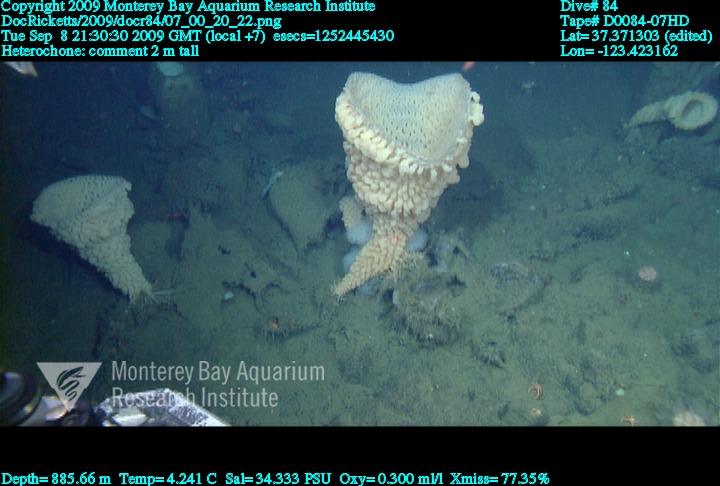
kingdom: Animalia
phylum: Porifera
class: Hexactinellida
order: Sceptrulophora
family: Aphrocallistidae
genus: Heterochone
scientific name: Heterochone
